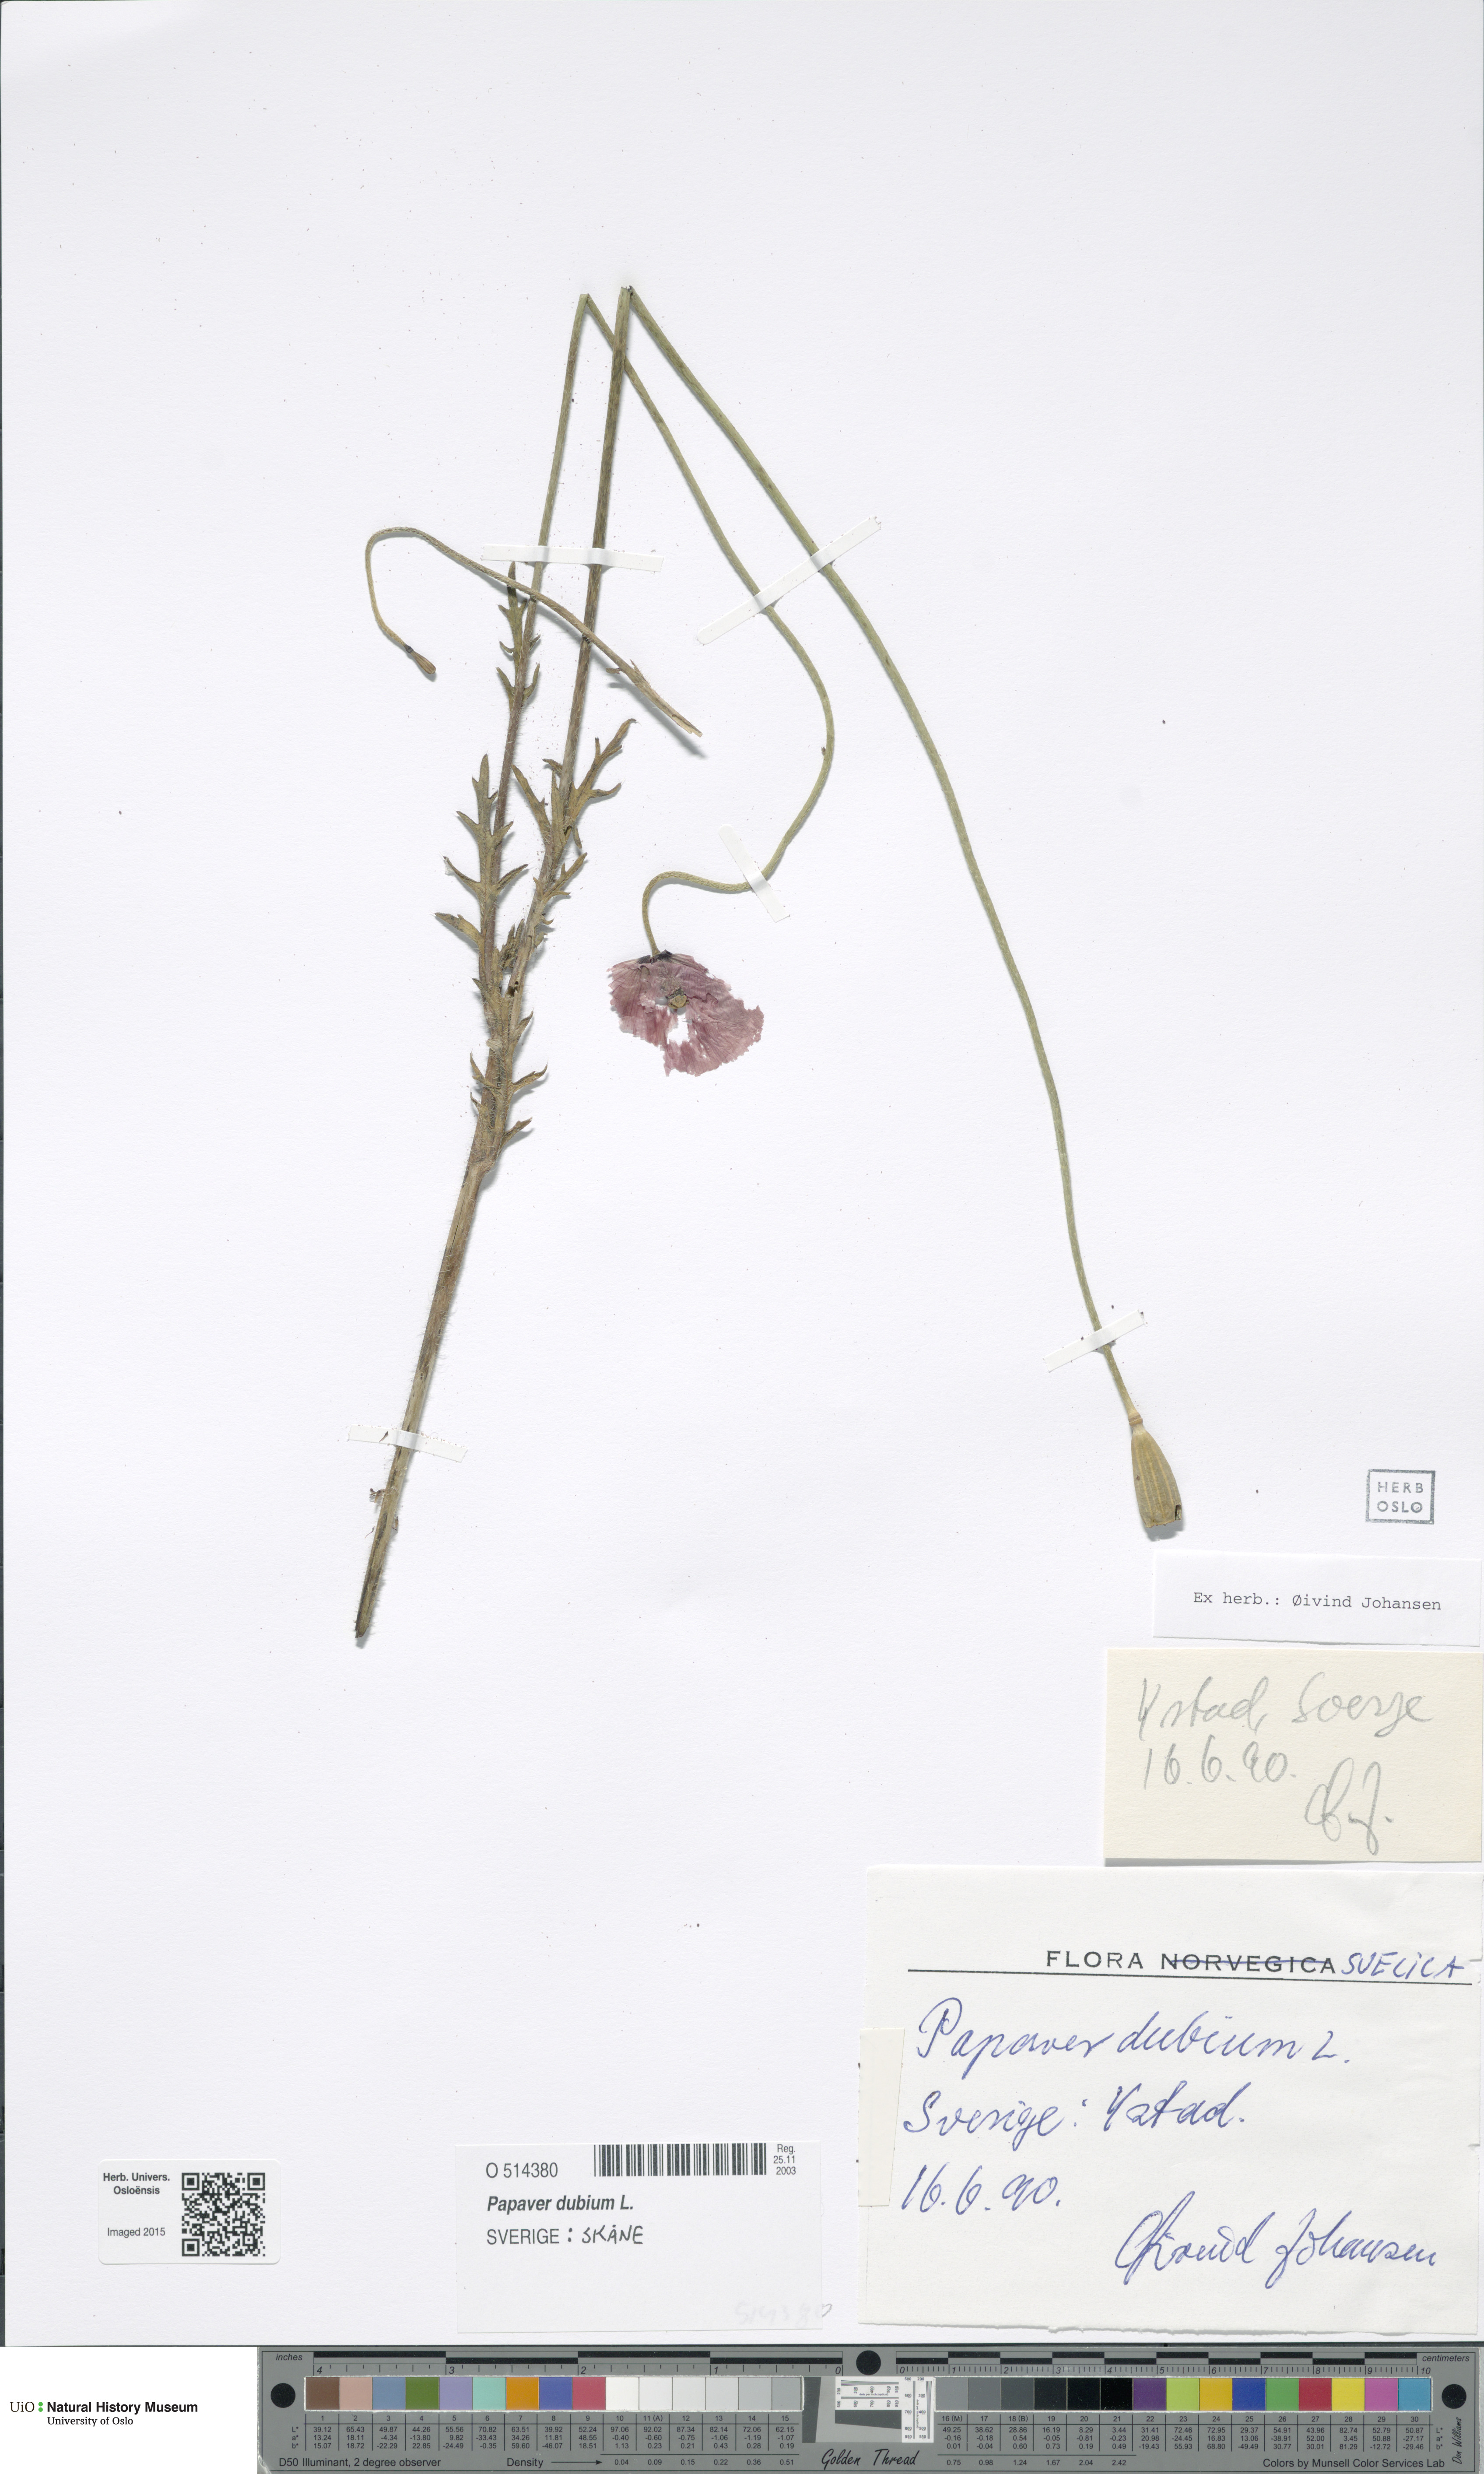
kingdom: Plantae
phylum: Tracheophyta
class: Magnoliopsida
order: Ranunculales
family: Papaveraceae
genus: Papaver
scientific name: Papaver dubium
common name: Long-headed poppy
